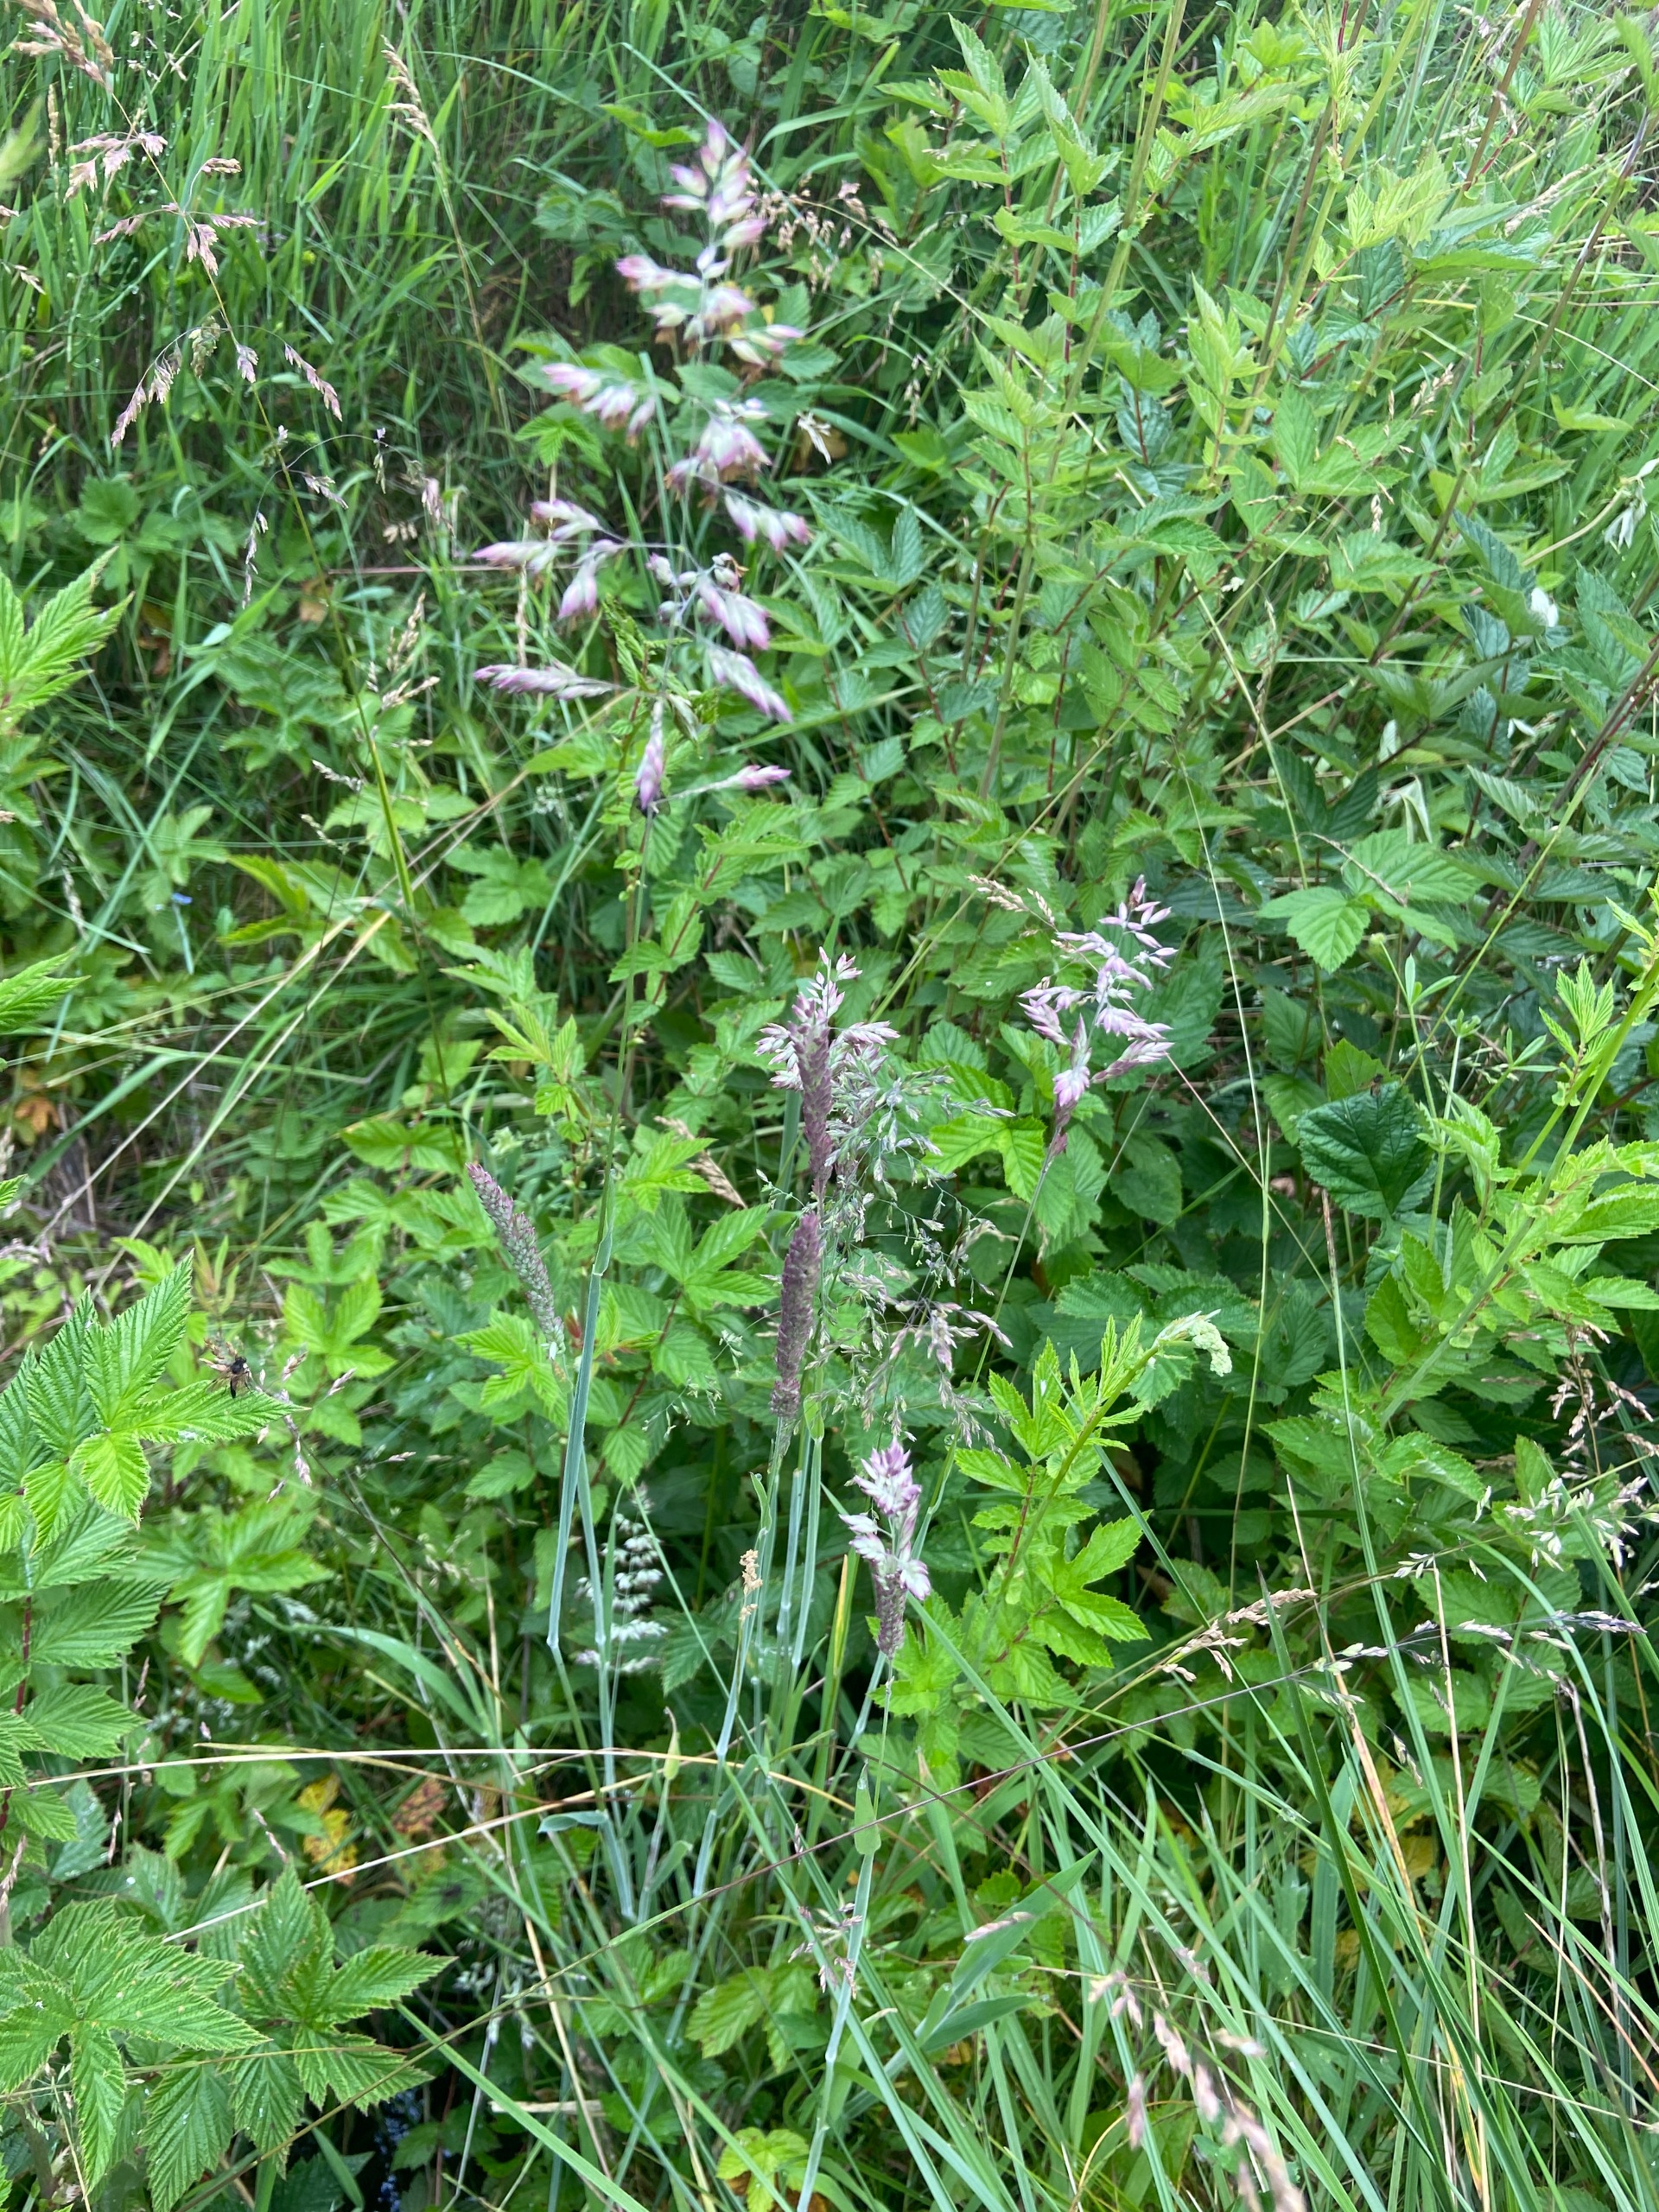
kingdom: Plantae
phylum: Tracheophyta
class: Liliopsida
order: Poales
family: Poaceae
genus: Holcus
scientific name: Holcus lanatus
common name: Fløjlsgræs
